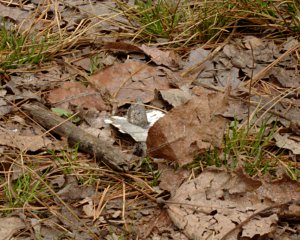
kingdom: Animalia
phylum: Arthropoda
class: Insecta
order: Lepidoptera
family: Lycaenidae
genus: Celastrina
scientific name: Celastrina lucia
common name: Northern Spring Azure
